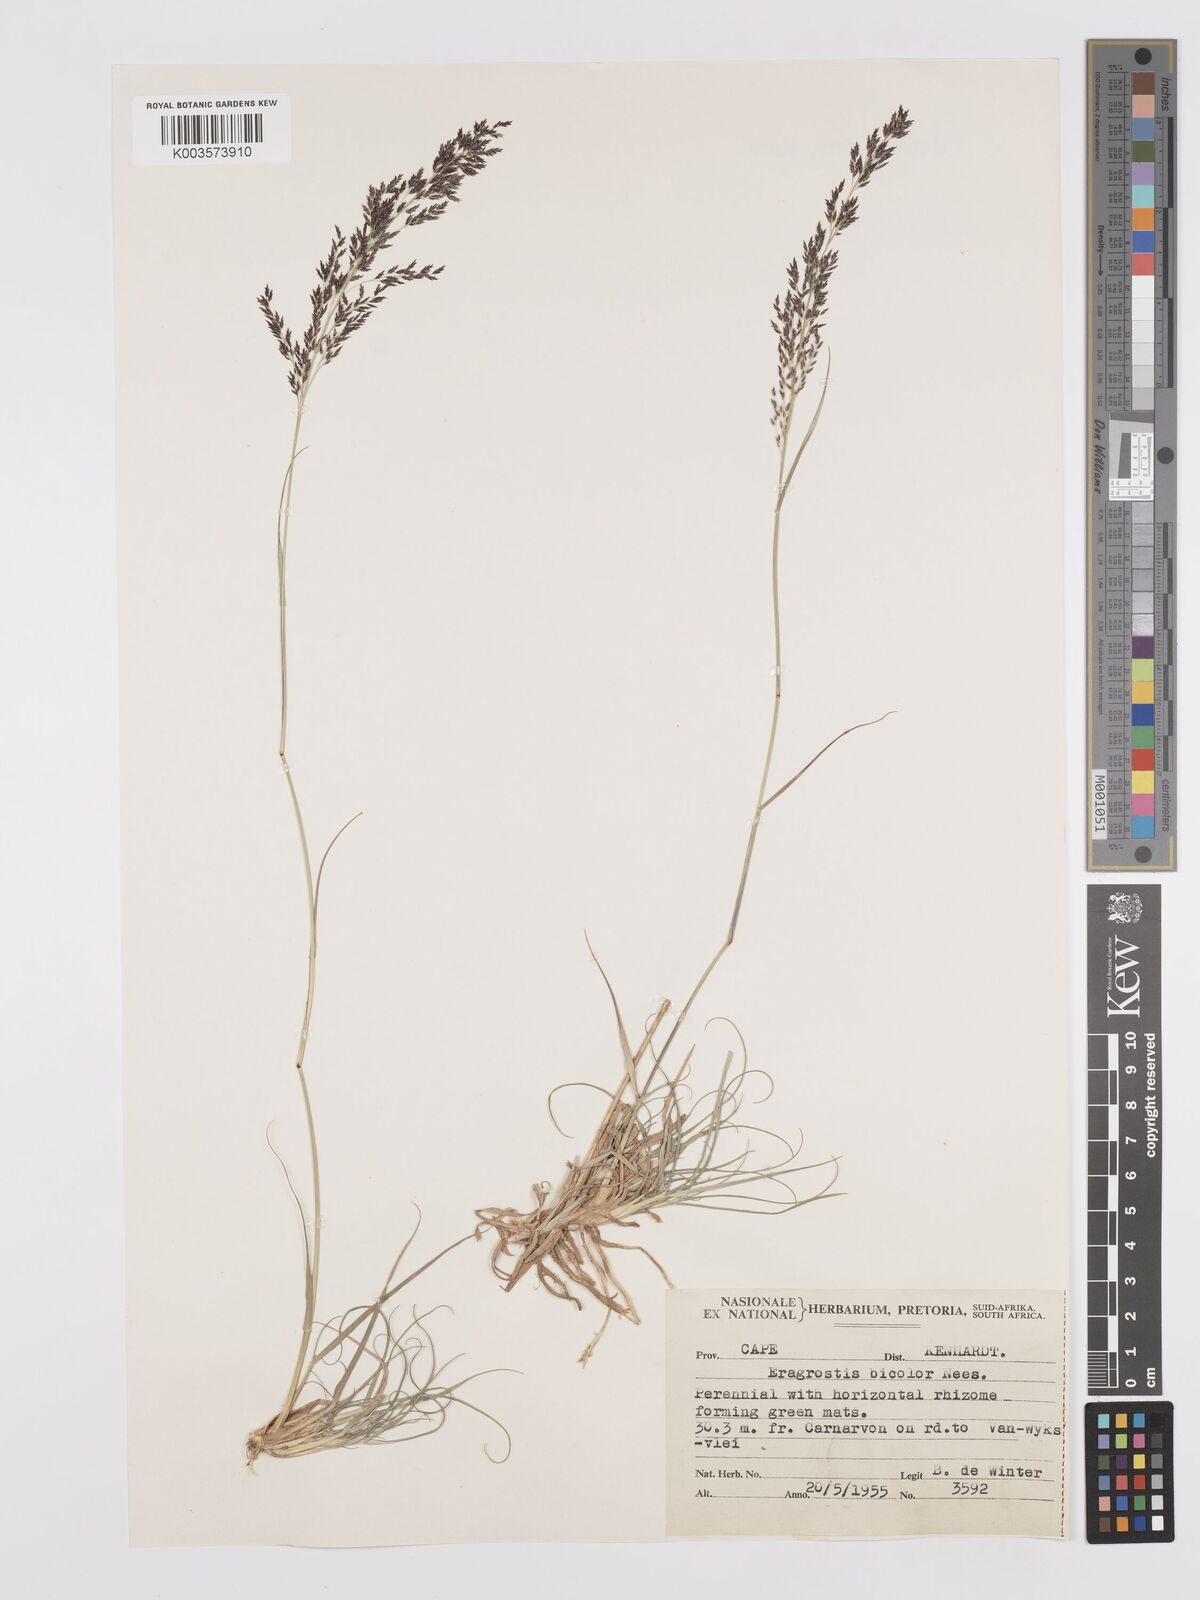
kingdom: Plantae
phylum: Tracheophyta
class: Liliopsida
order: Poales
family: Poaceae
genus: Eragrostis
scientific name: Eragrostis
